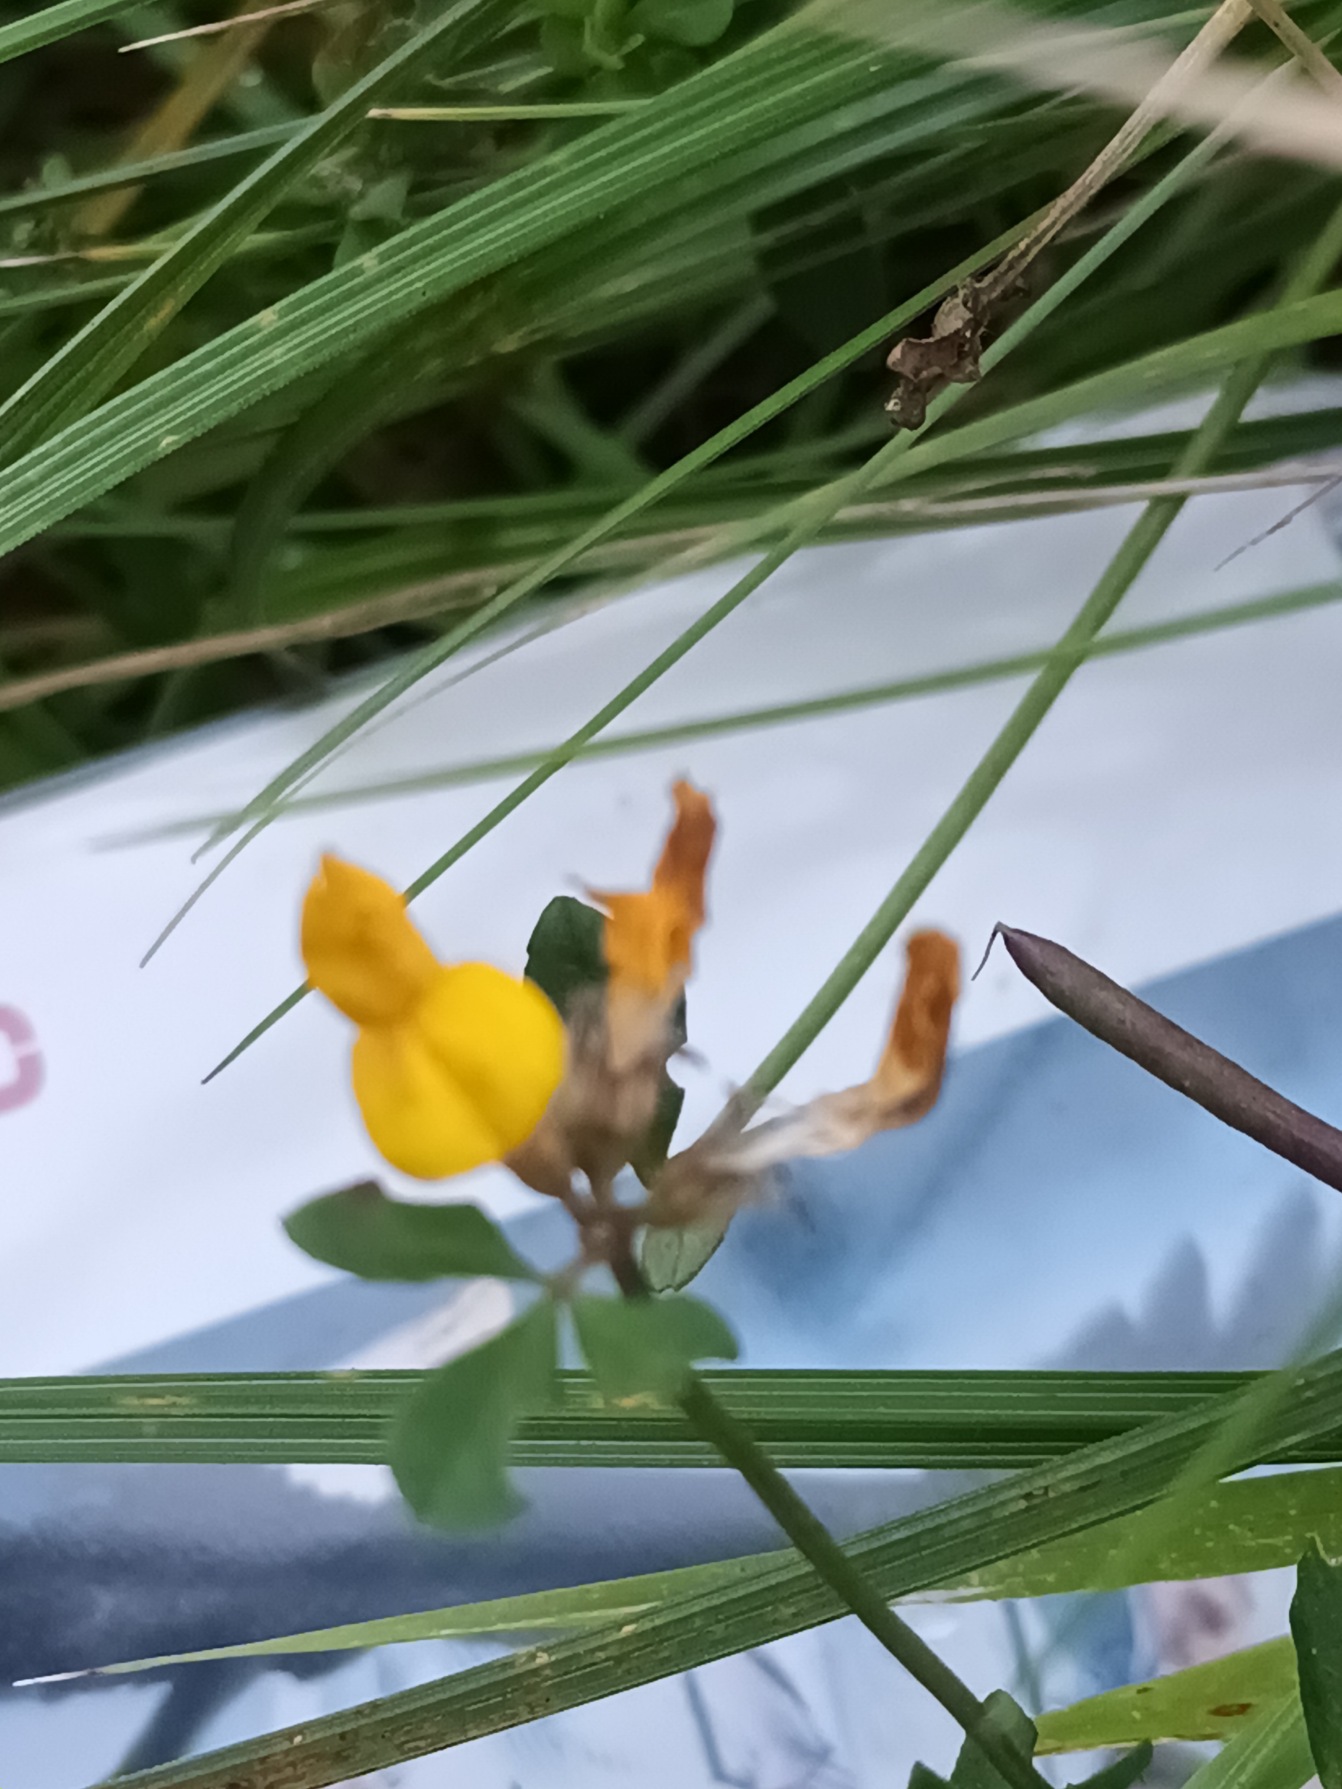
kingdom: Plantae
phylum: Tracheophyta
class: Magnoliopsida
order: Fabales
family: Fabaceae
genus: Lotus
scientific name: Lotus pedunculatus
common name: Sump-kællingetand
